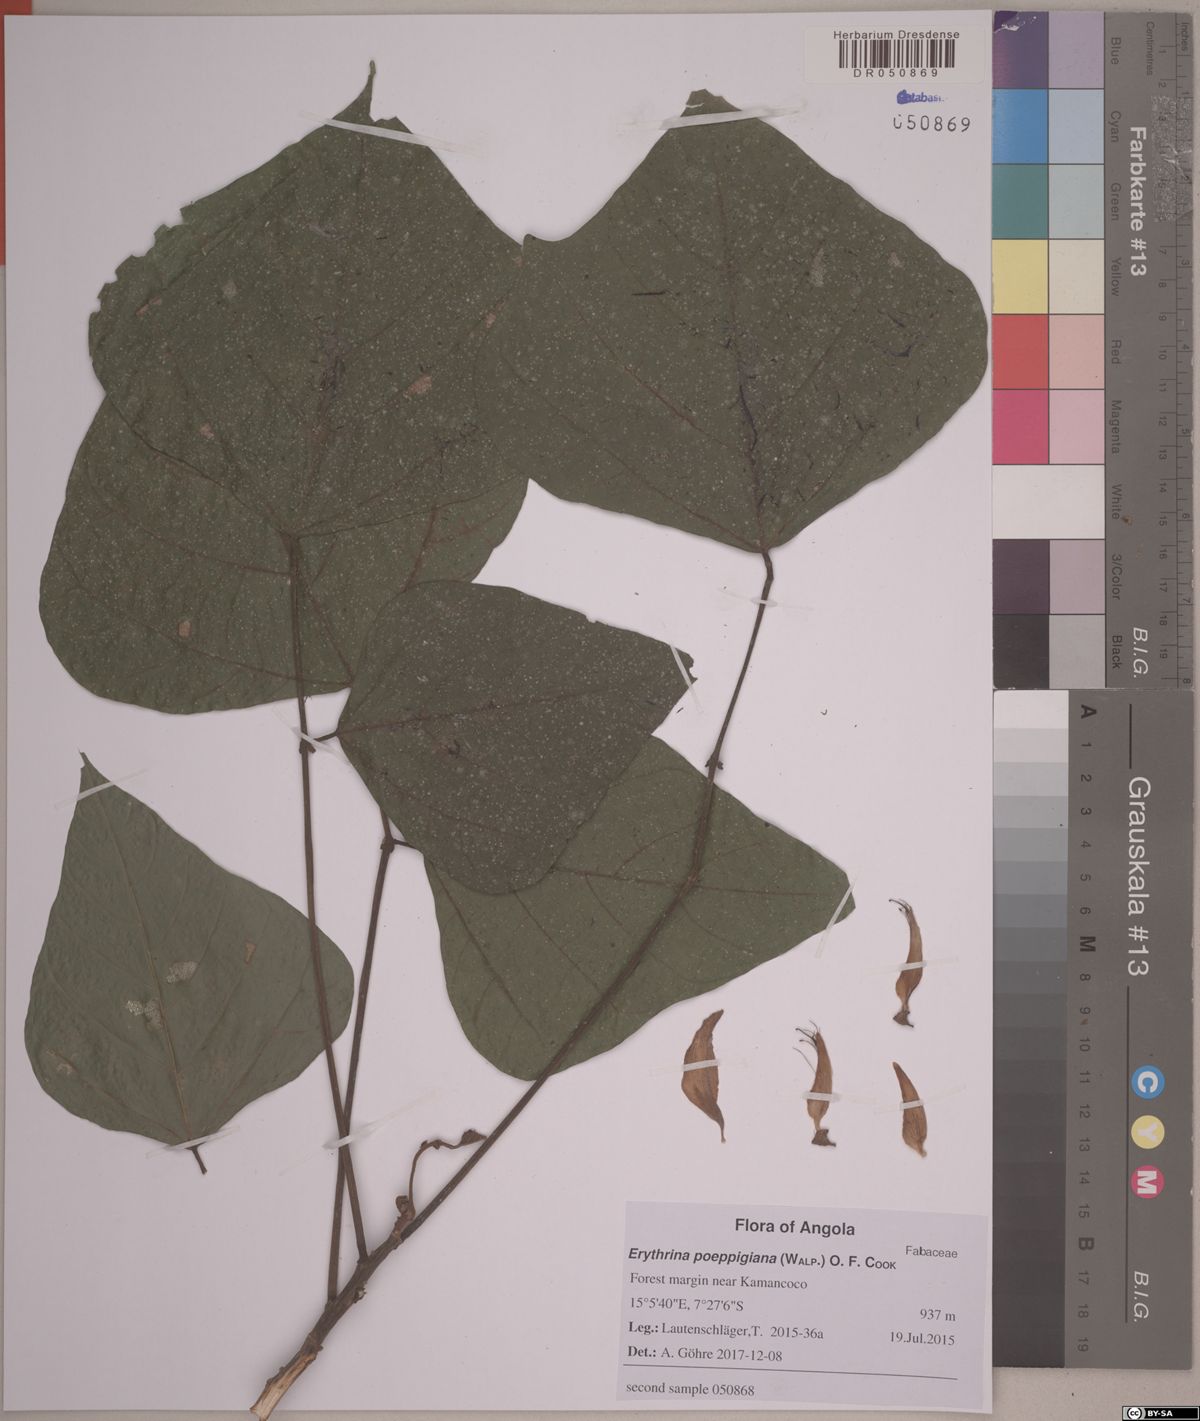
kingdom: Plantae
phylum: Tracheophyta
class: Magnoliopsida
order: Fabales
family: Fabaceae
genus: Erythrina
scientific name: Erythrina poeppigiana
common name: Coral tree
